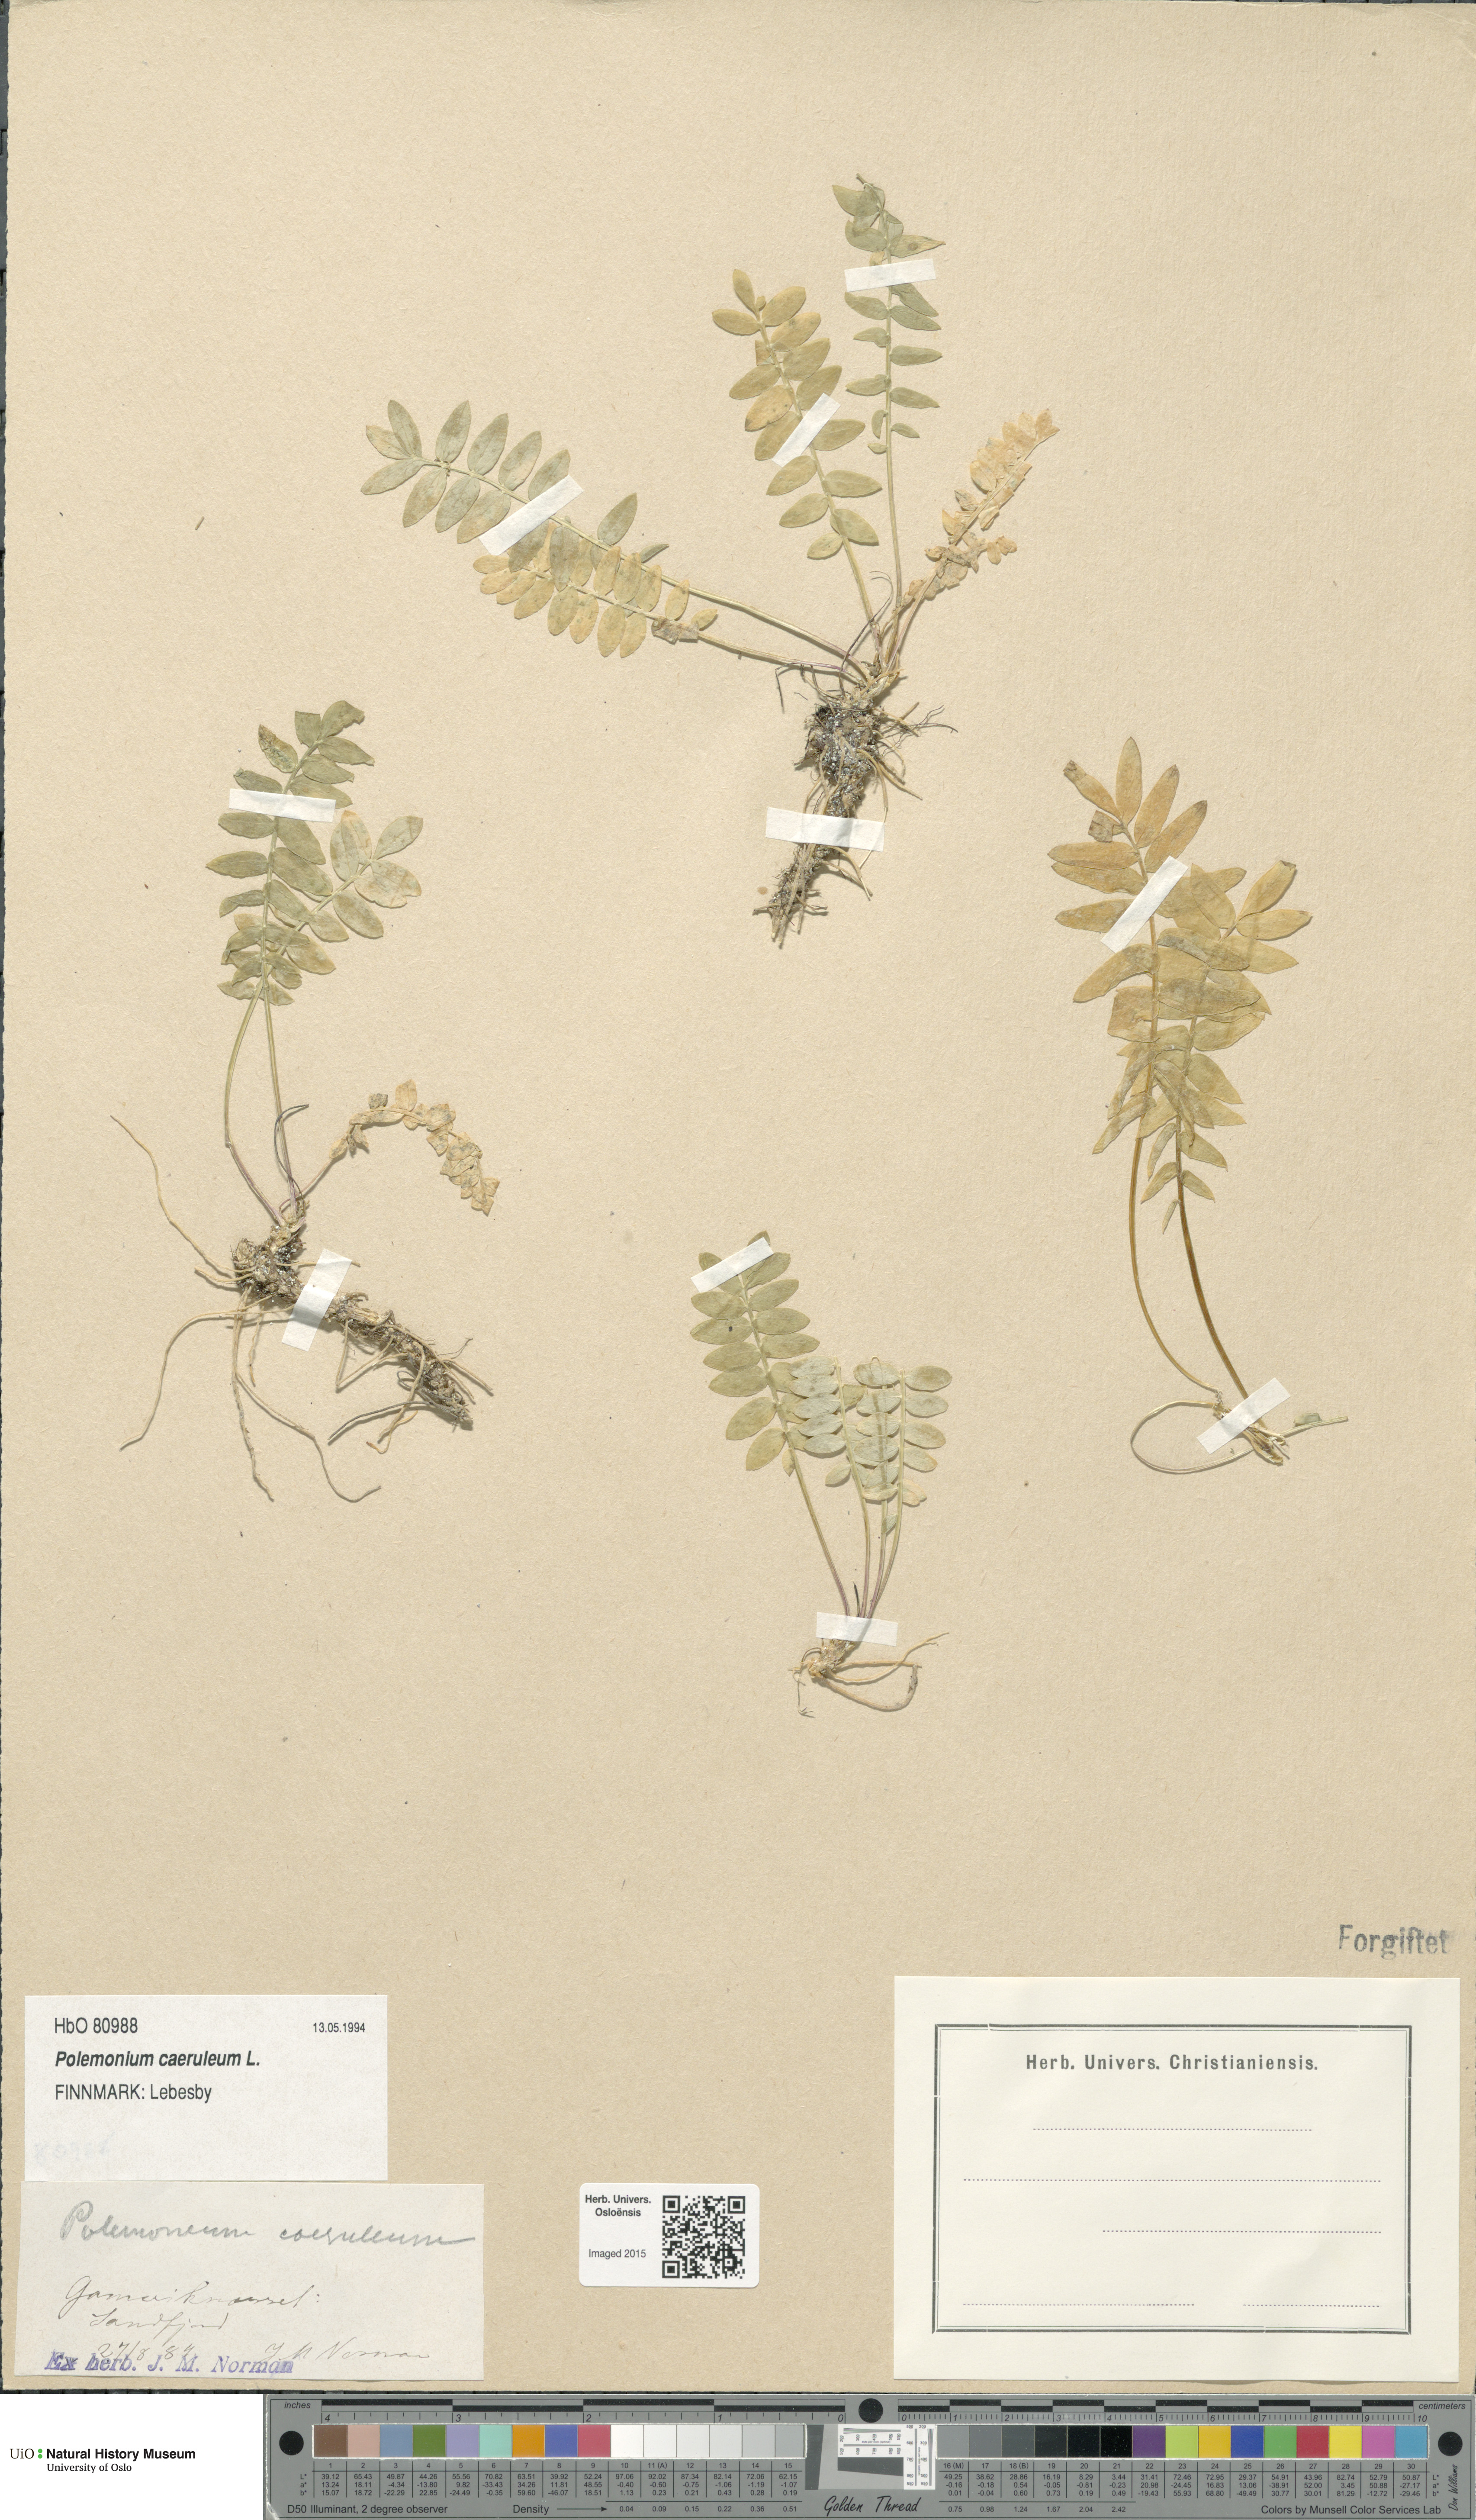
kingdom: Plantae
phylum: Tracheophyta
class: Magnoliopsida
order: Ericales
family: Polemoniaceae
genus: Polemonium
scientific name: Polemonium caeruleum
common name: Jacob's-ladder
